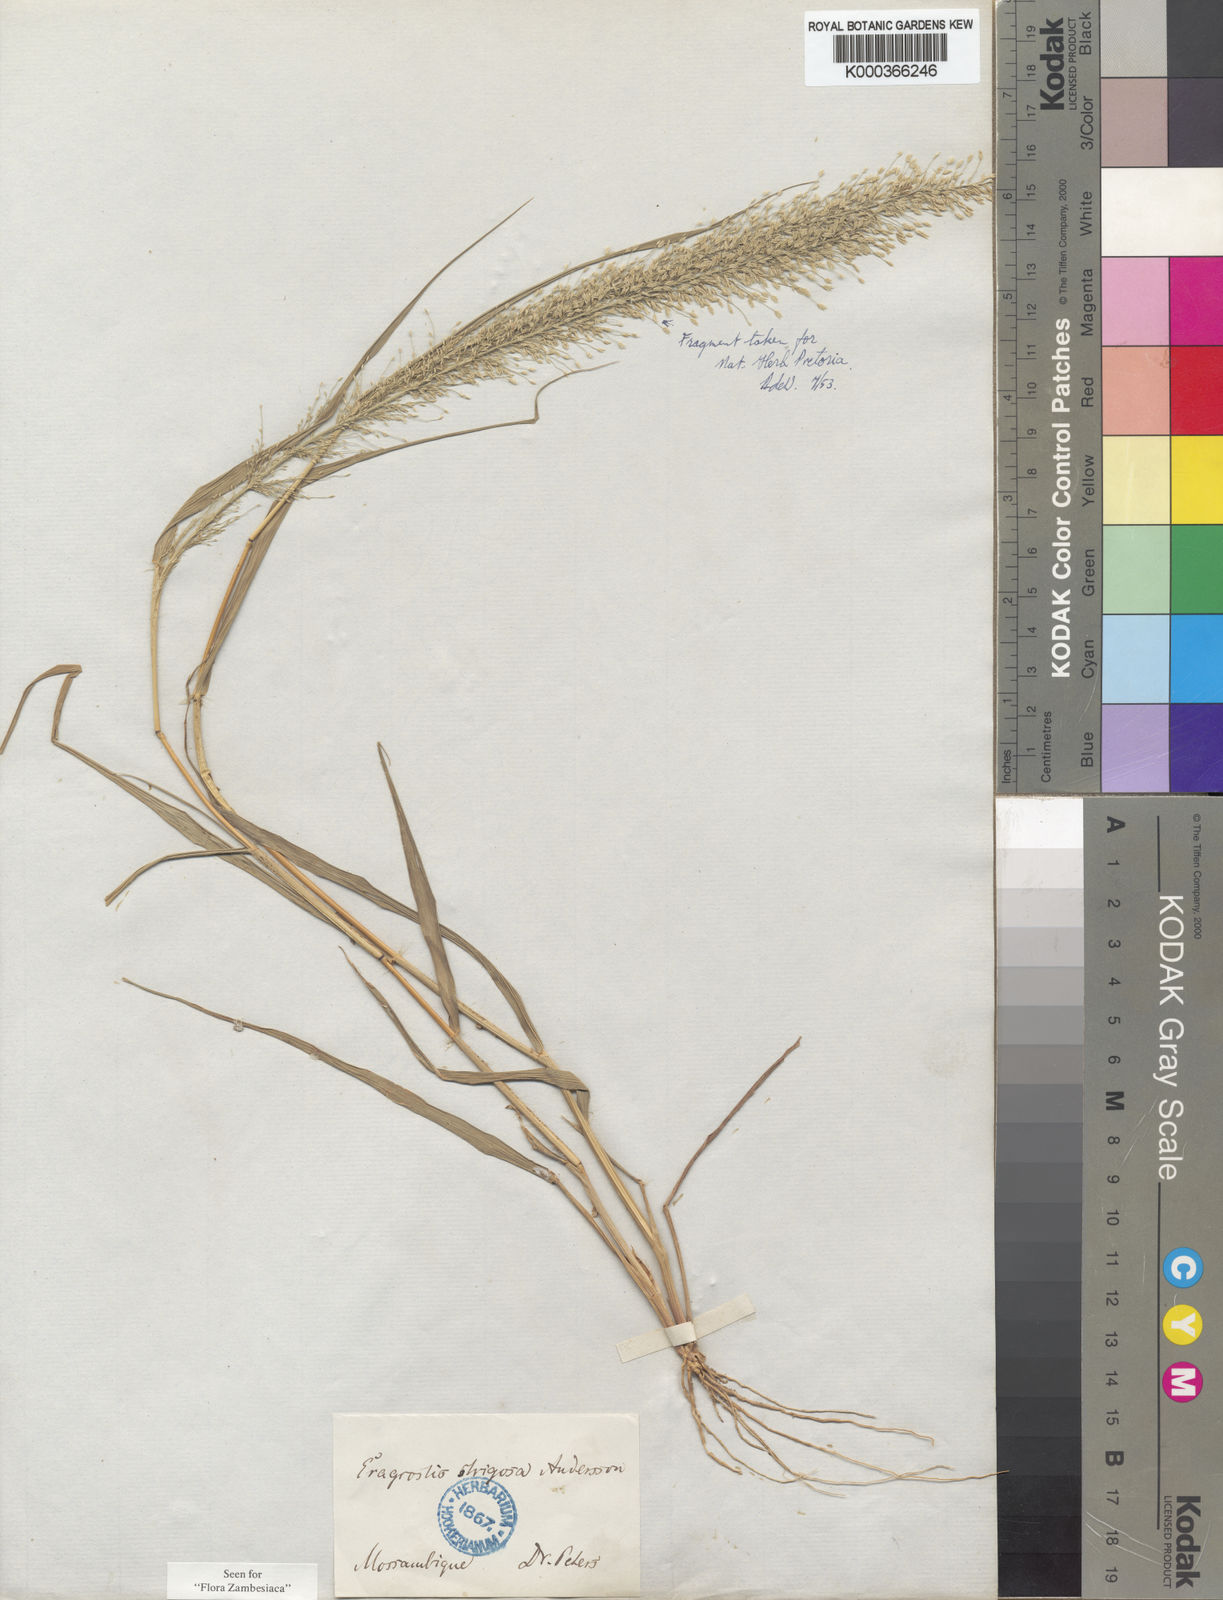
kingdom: Plantae
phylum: Tracheophyta
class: Liliopsida
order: Poales
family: Poaceae
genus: Eragrostis
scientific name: Eragrostis viscosa
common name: Sticky love grass
